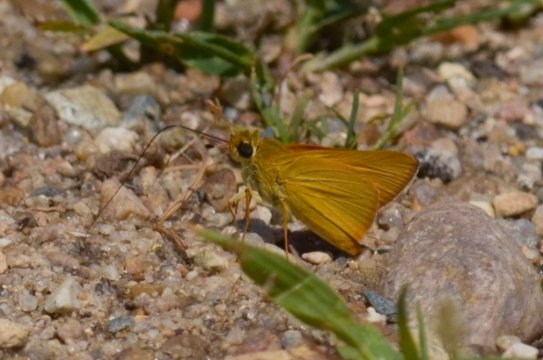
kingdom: Animalia
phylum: Arthropoda
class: Insecta
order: Lepidoptera
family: Hesperiidae
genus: Atrytone
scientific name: Atrytone delaware
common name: Delaware Skipper
